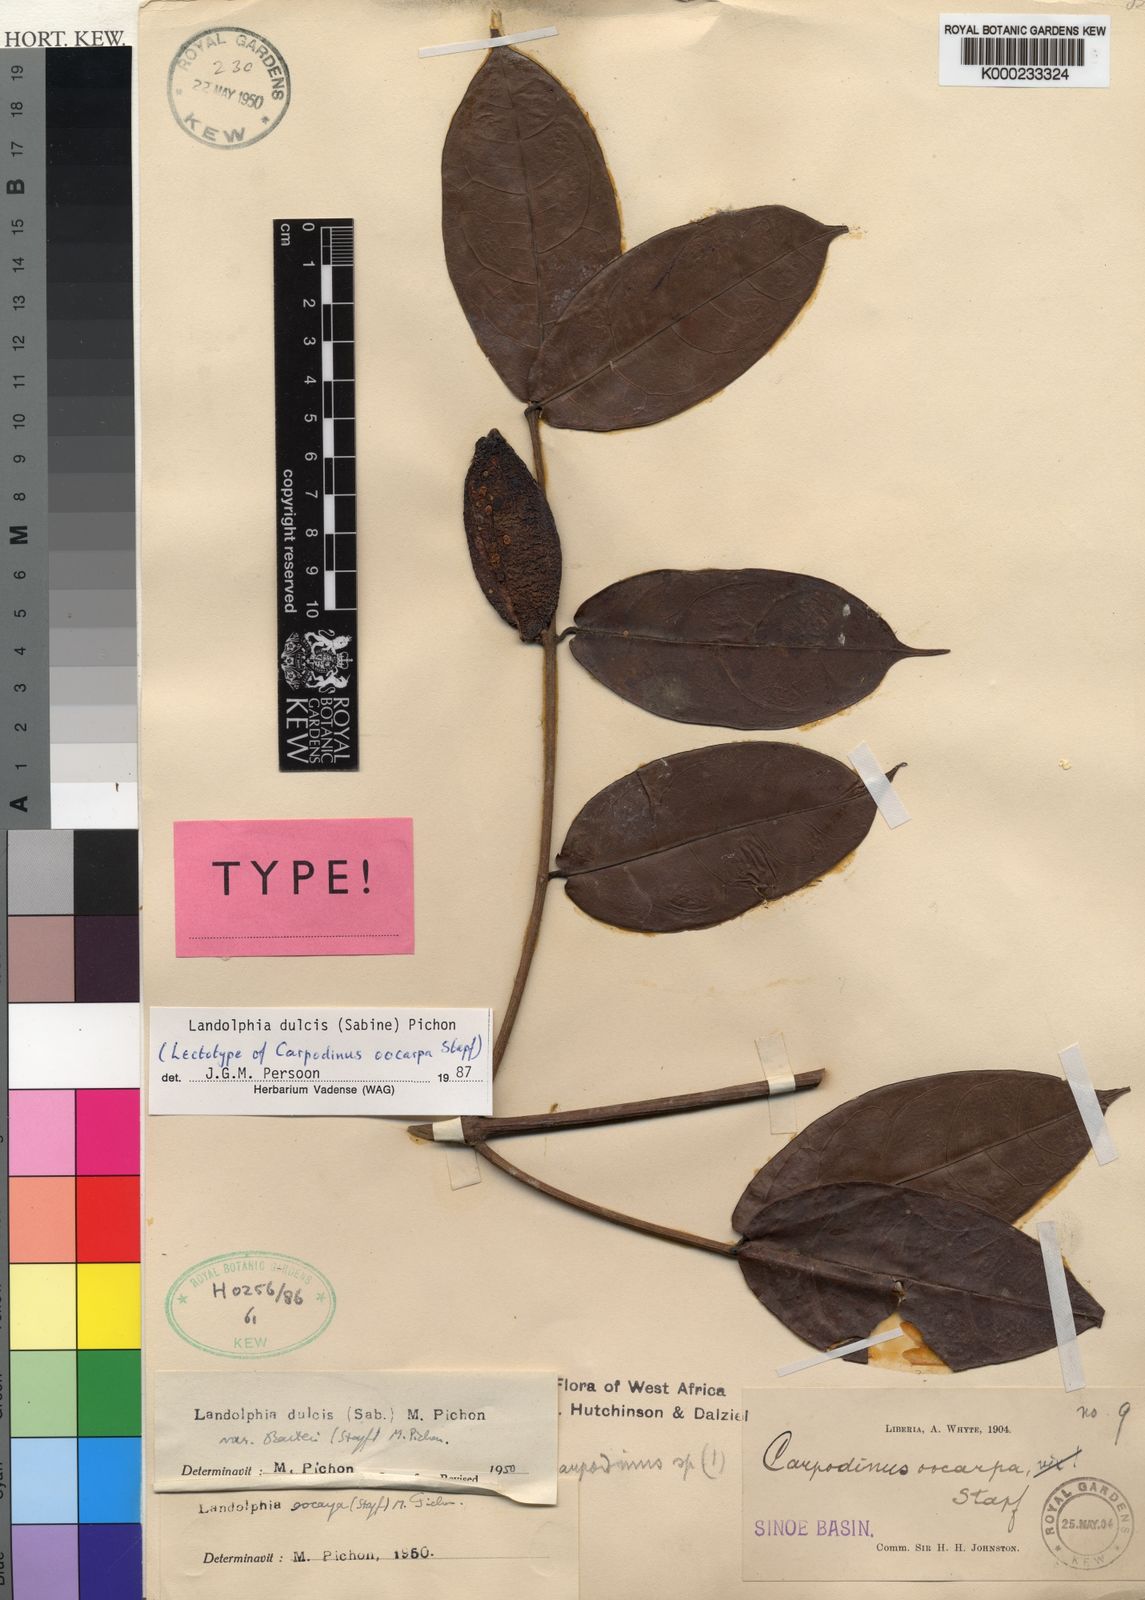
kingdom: Plantae
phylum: Tracheophyta
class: Magnoliopsida
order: Gentianales
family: Apocynaceae
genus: Landolphia
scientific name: Landolphia dulcis
